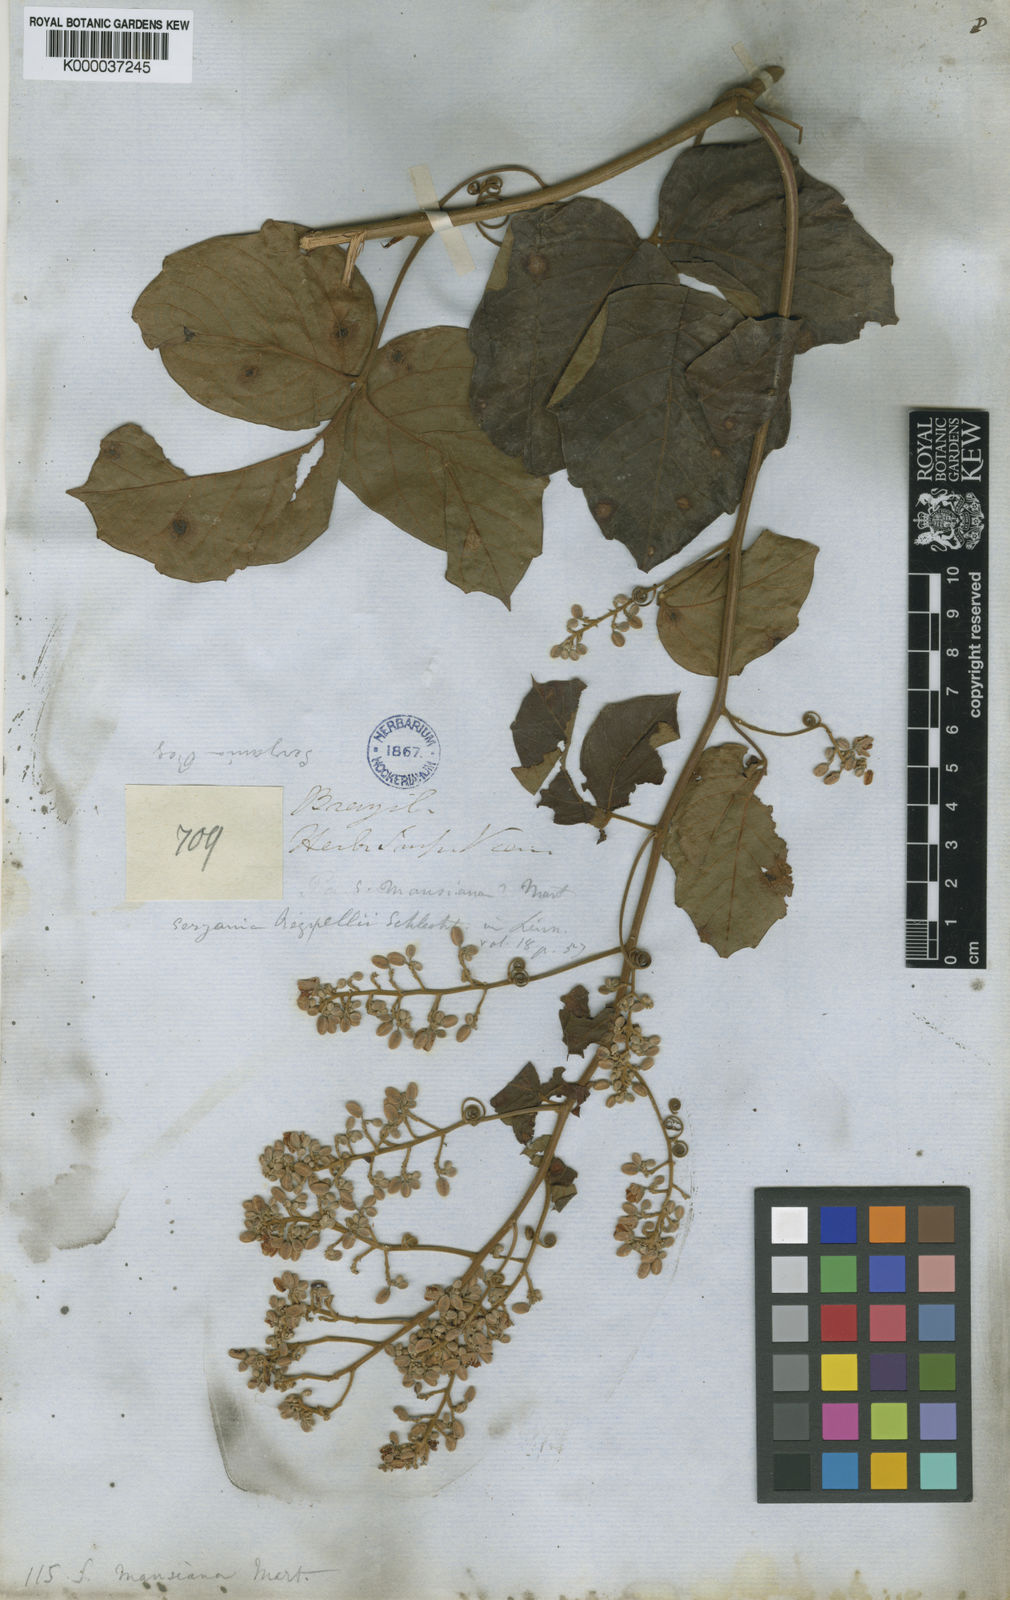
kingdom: Plantae
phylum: Tracheophyta
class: Magnoliopsida
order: Sapindales
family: Sapindaceae
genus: Serjania
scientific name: Serjania mansiana
